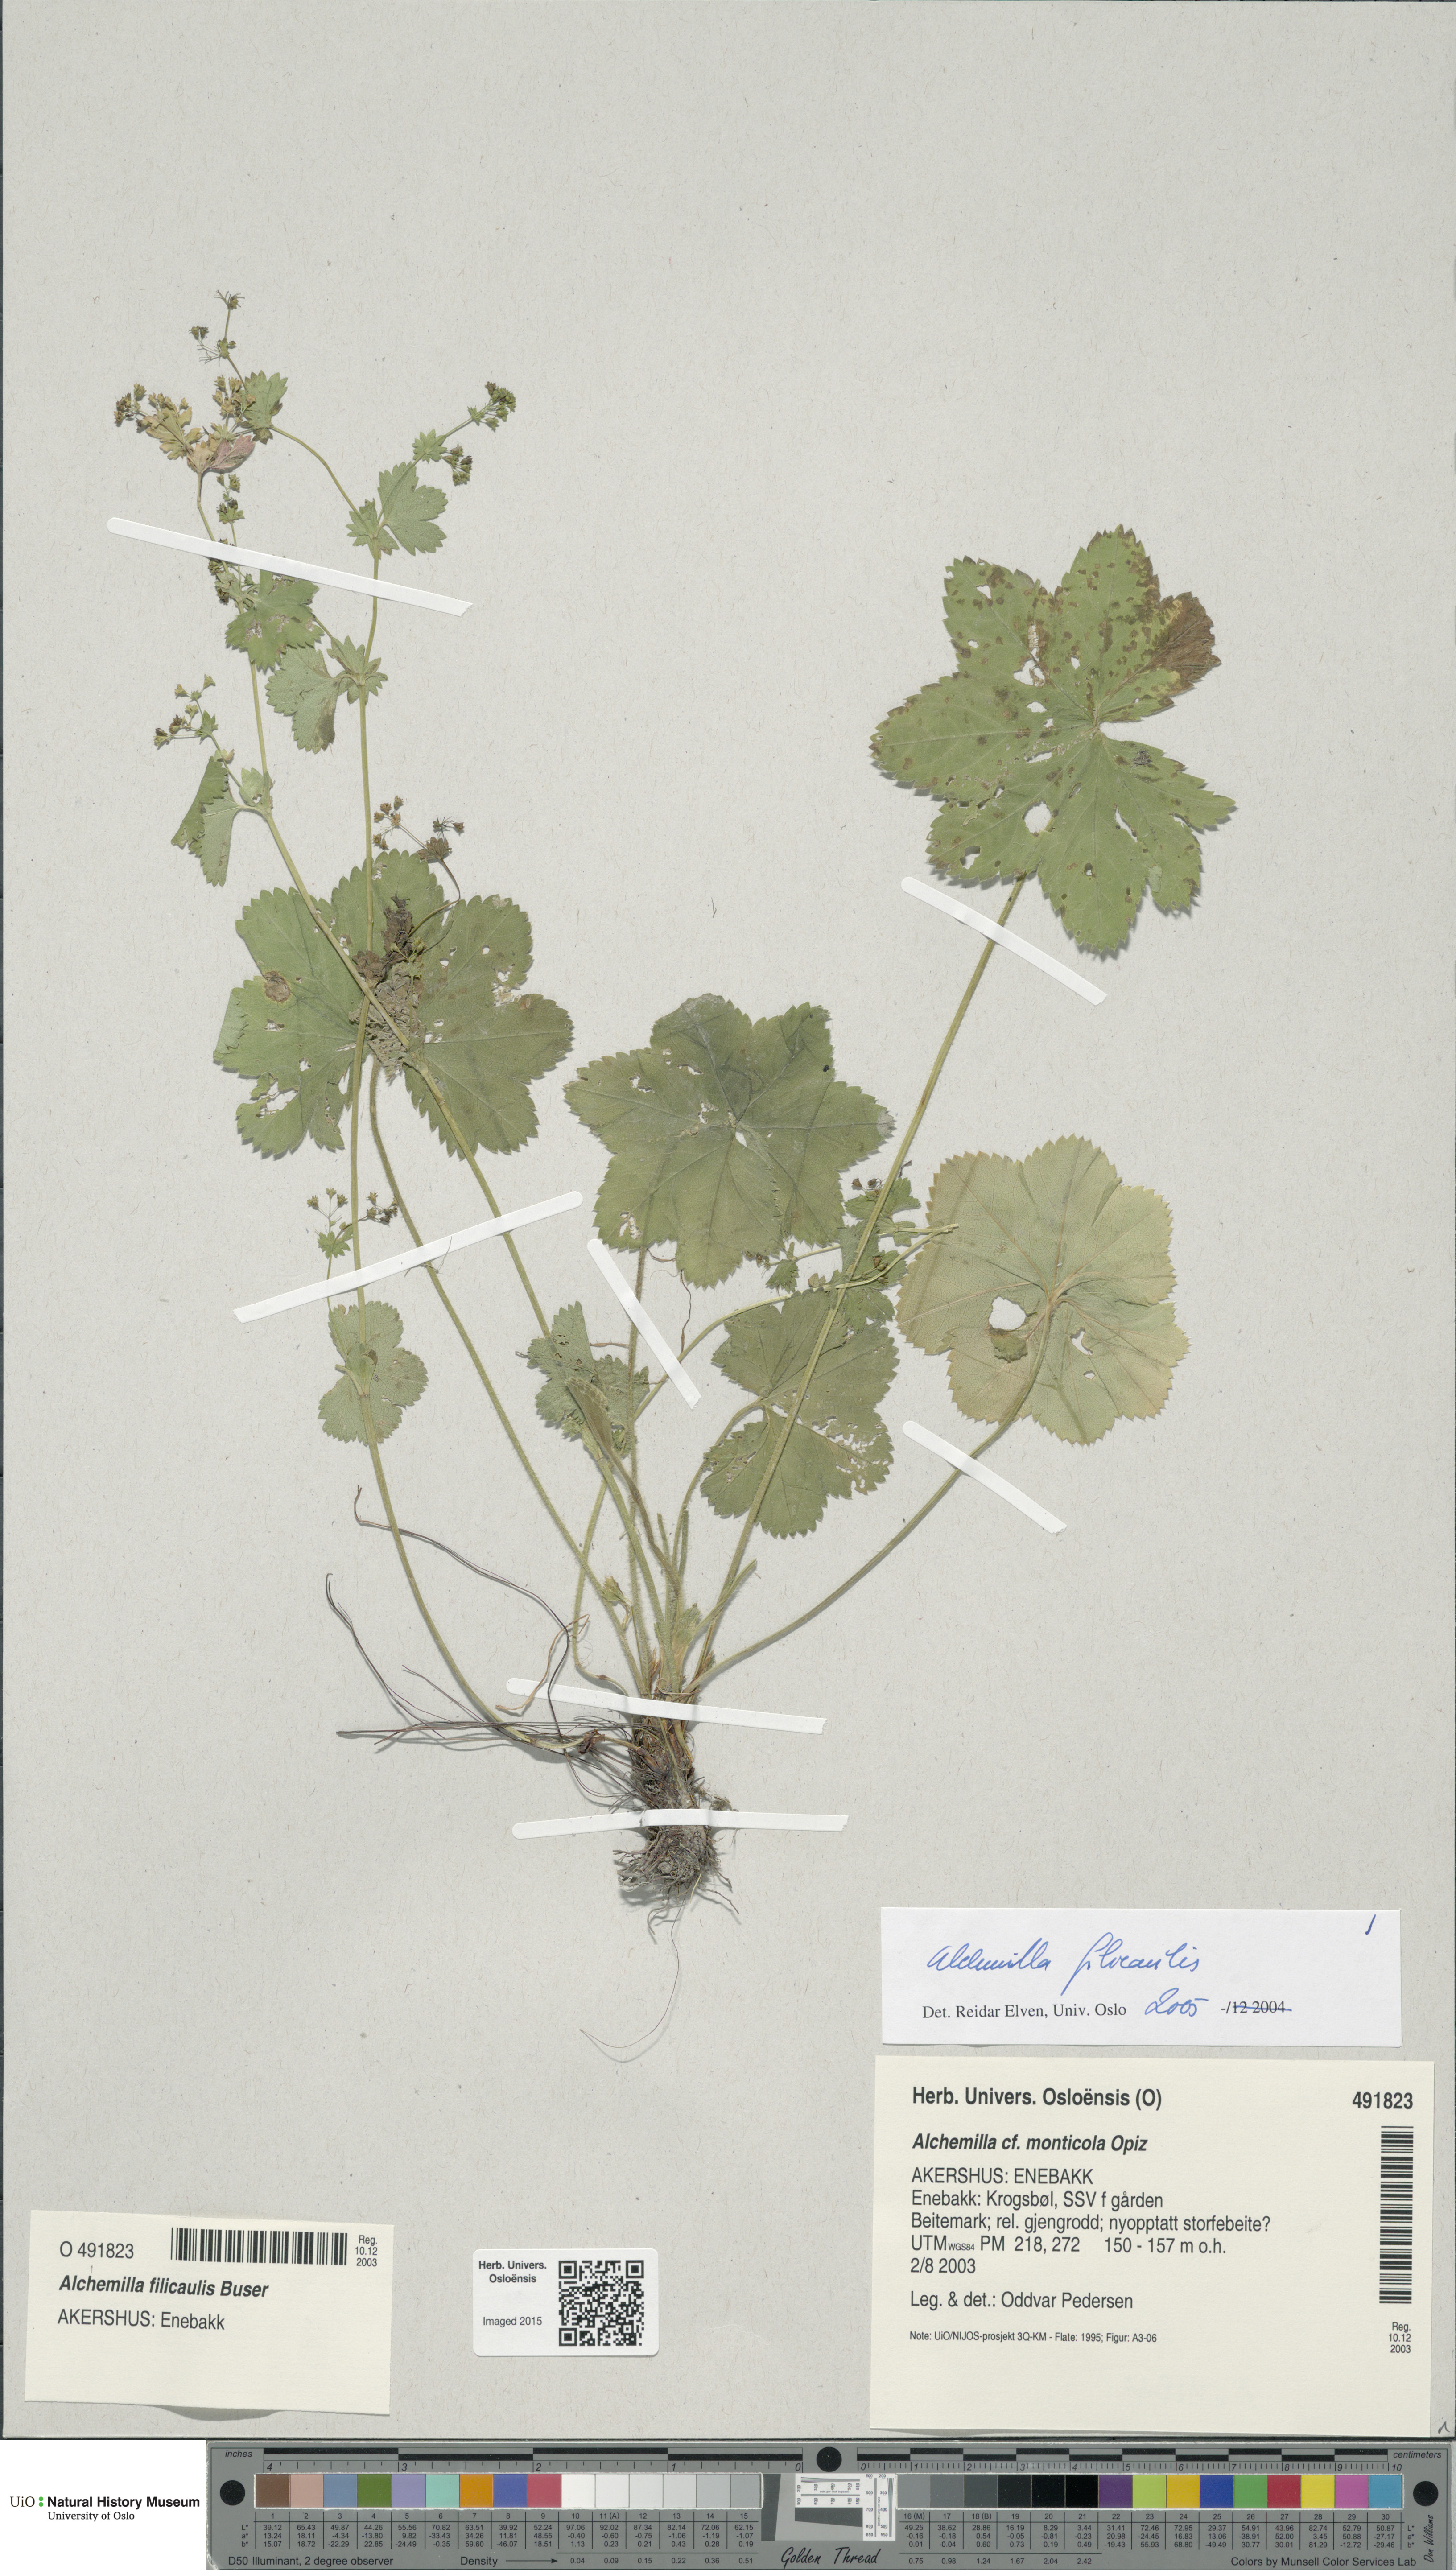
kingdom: Plantae
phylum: Tracheophyta
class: Magnoliopsida
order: Rosales
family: Rosaceae
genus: Alchemilla
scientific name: Alchemilla filicaulis
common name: Hairy lady's-mantle
